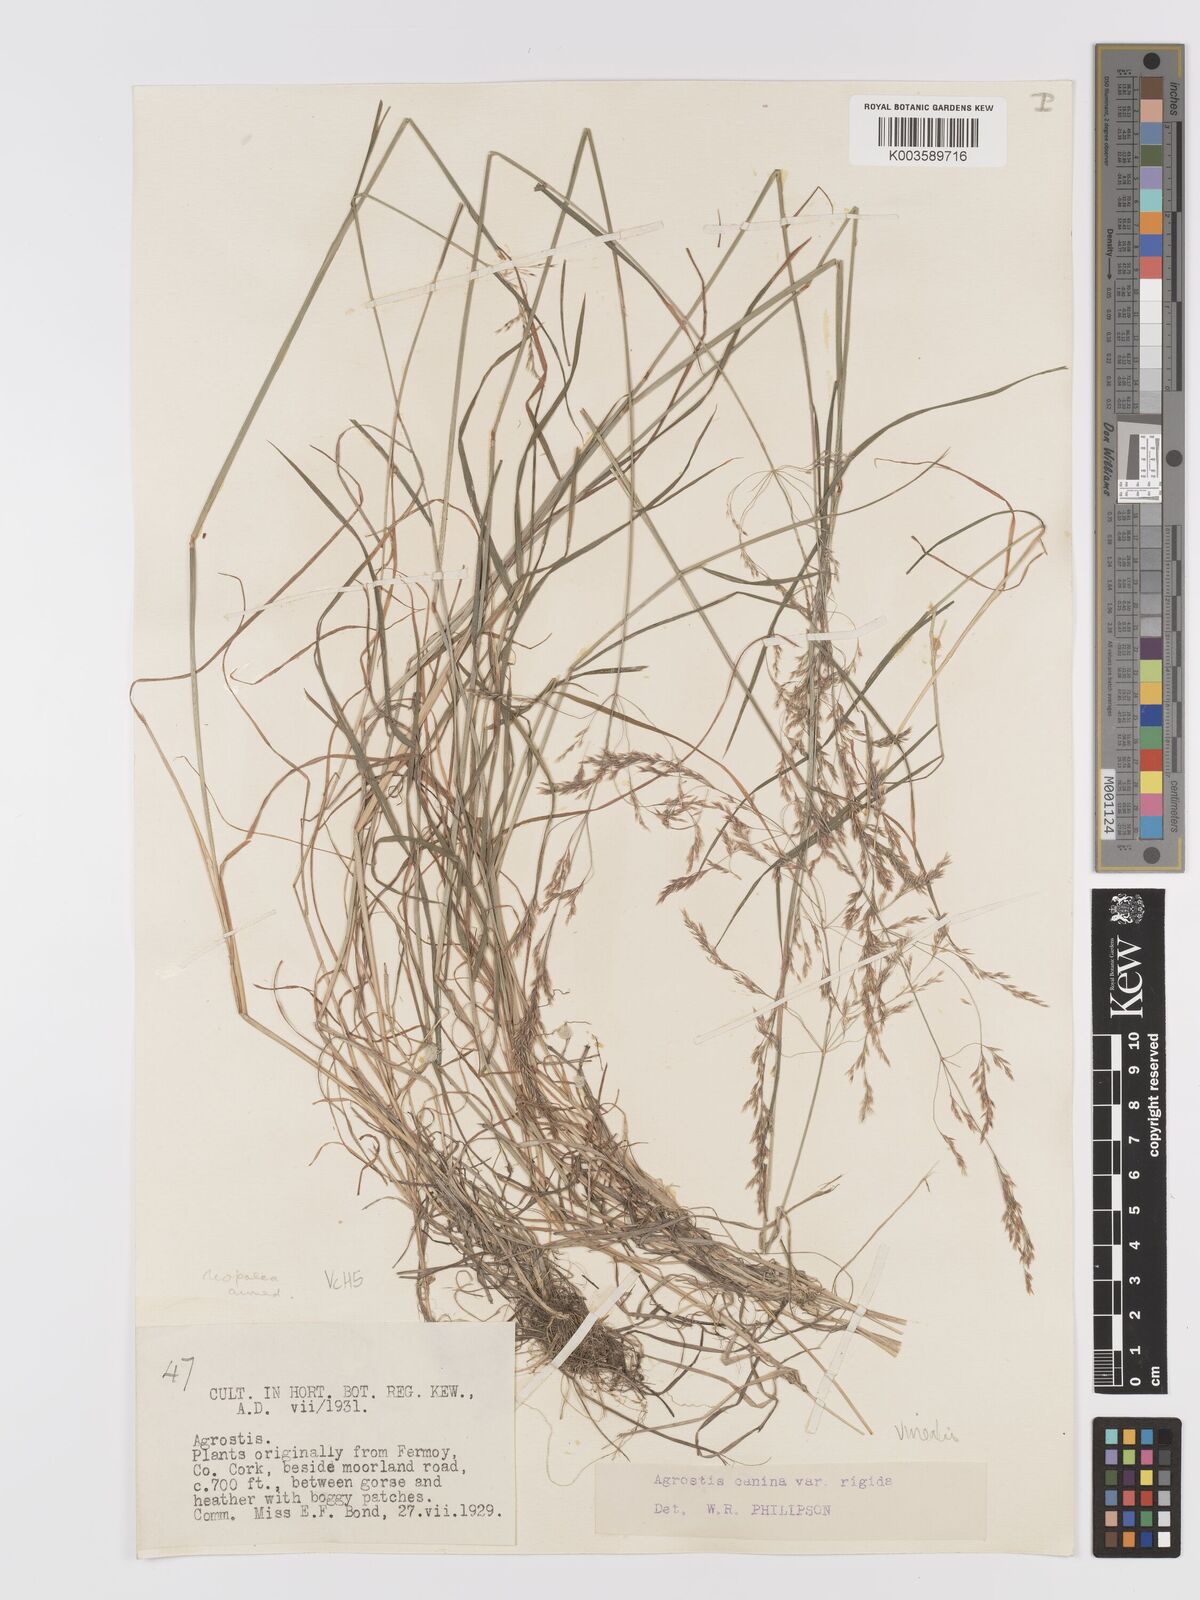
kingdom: Plantae
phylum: Tracheophyta
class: Liliopsida
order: Poales
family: Poaceae
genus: Agrostis
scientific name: Agrostis
